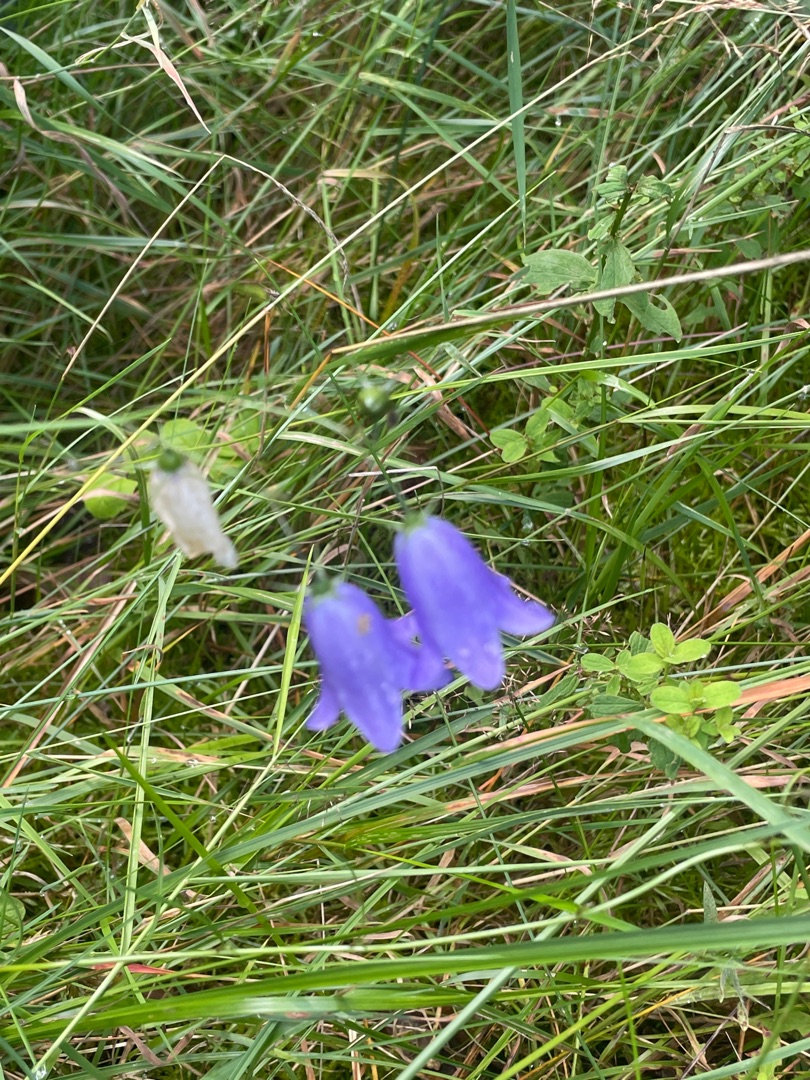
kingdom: Plantae
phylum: Tracheophyta
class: Magnoliopsida
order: Asterales
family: Campanulaceae
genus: Campanula
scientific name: Campanula rotundifolia
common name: Liden klokke
